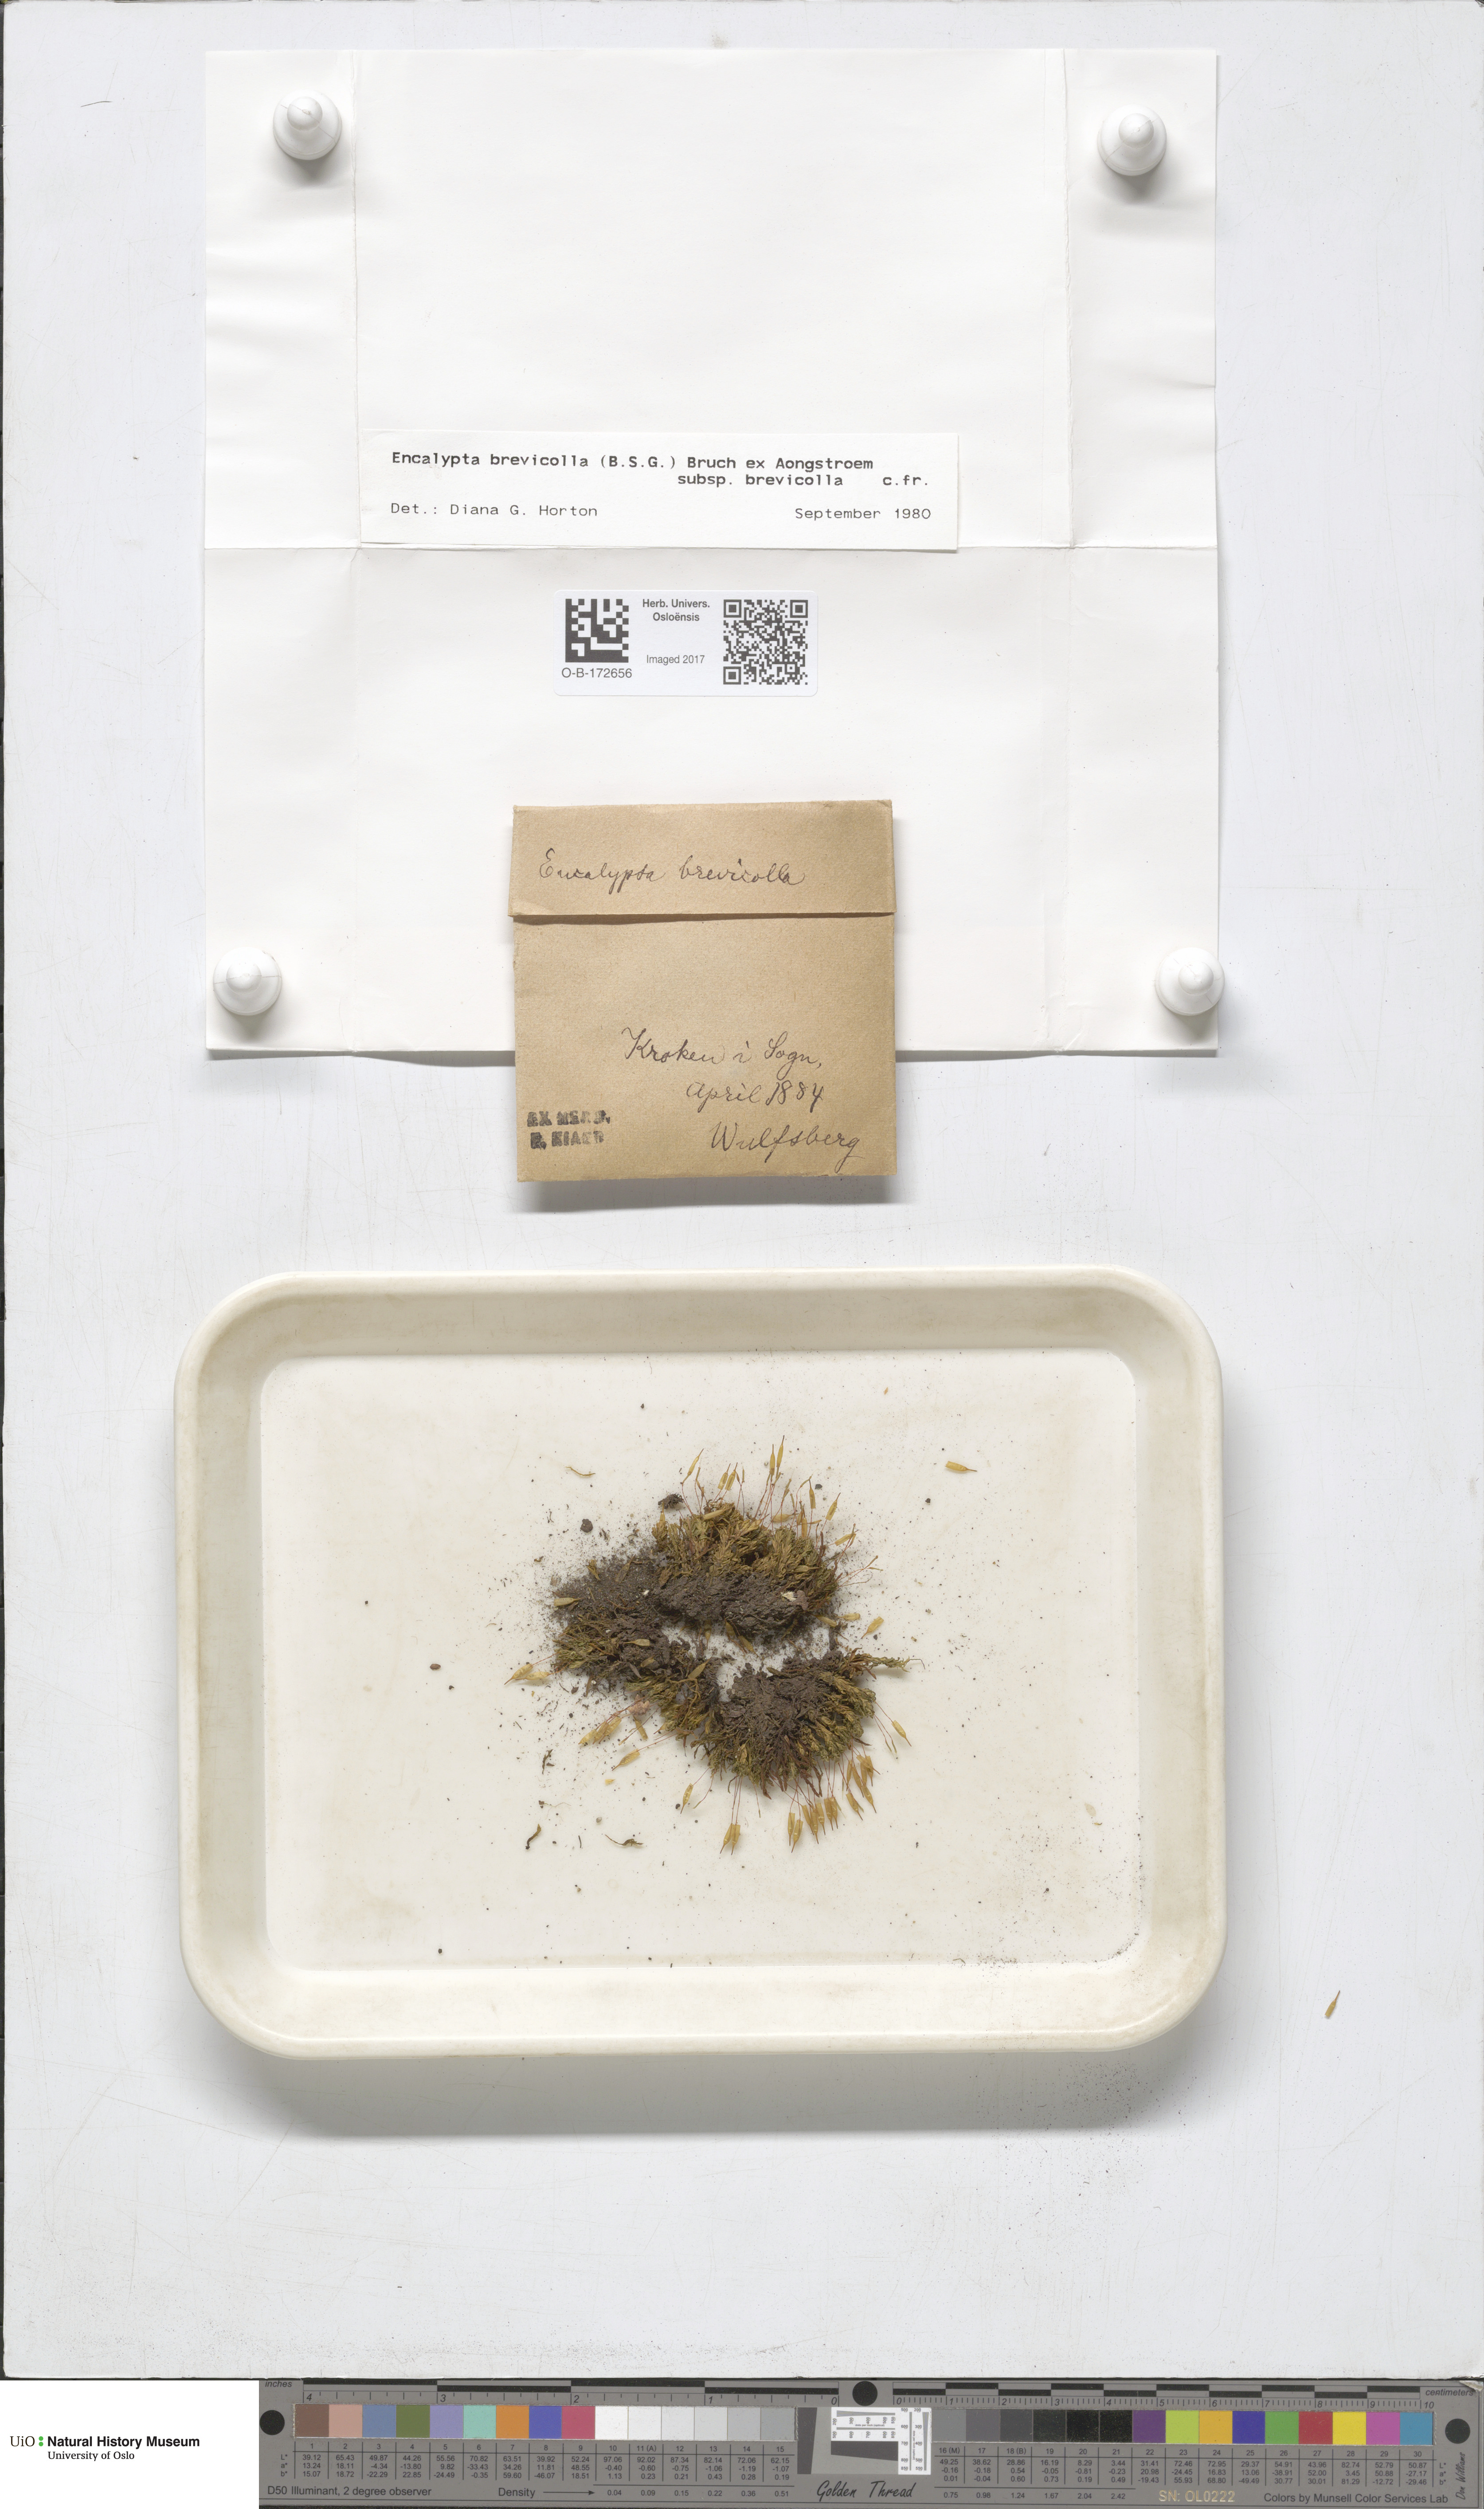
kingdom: Plantae
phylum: Bryophyta
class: Bryopsida
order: Encalyptales
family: Encalyptaceae
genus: Encalypta
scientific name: Encalypta brevicolla
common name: White-mouthed extinguisher-moss
